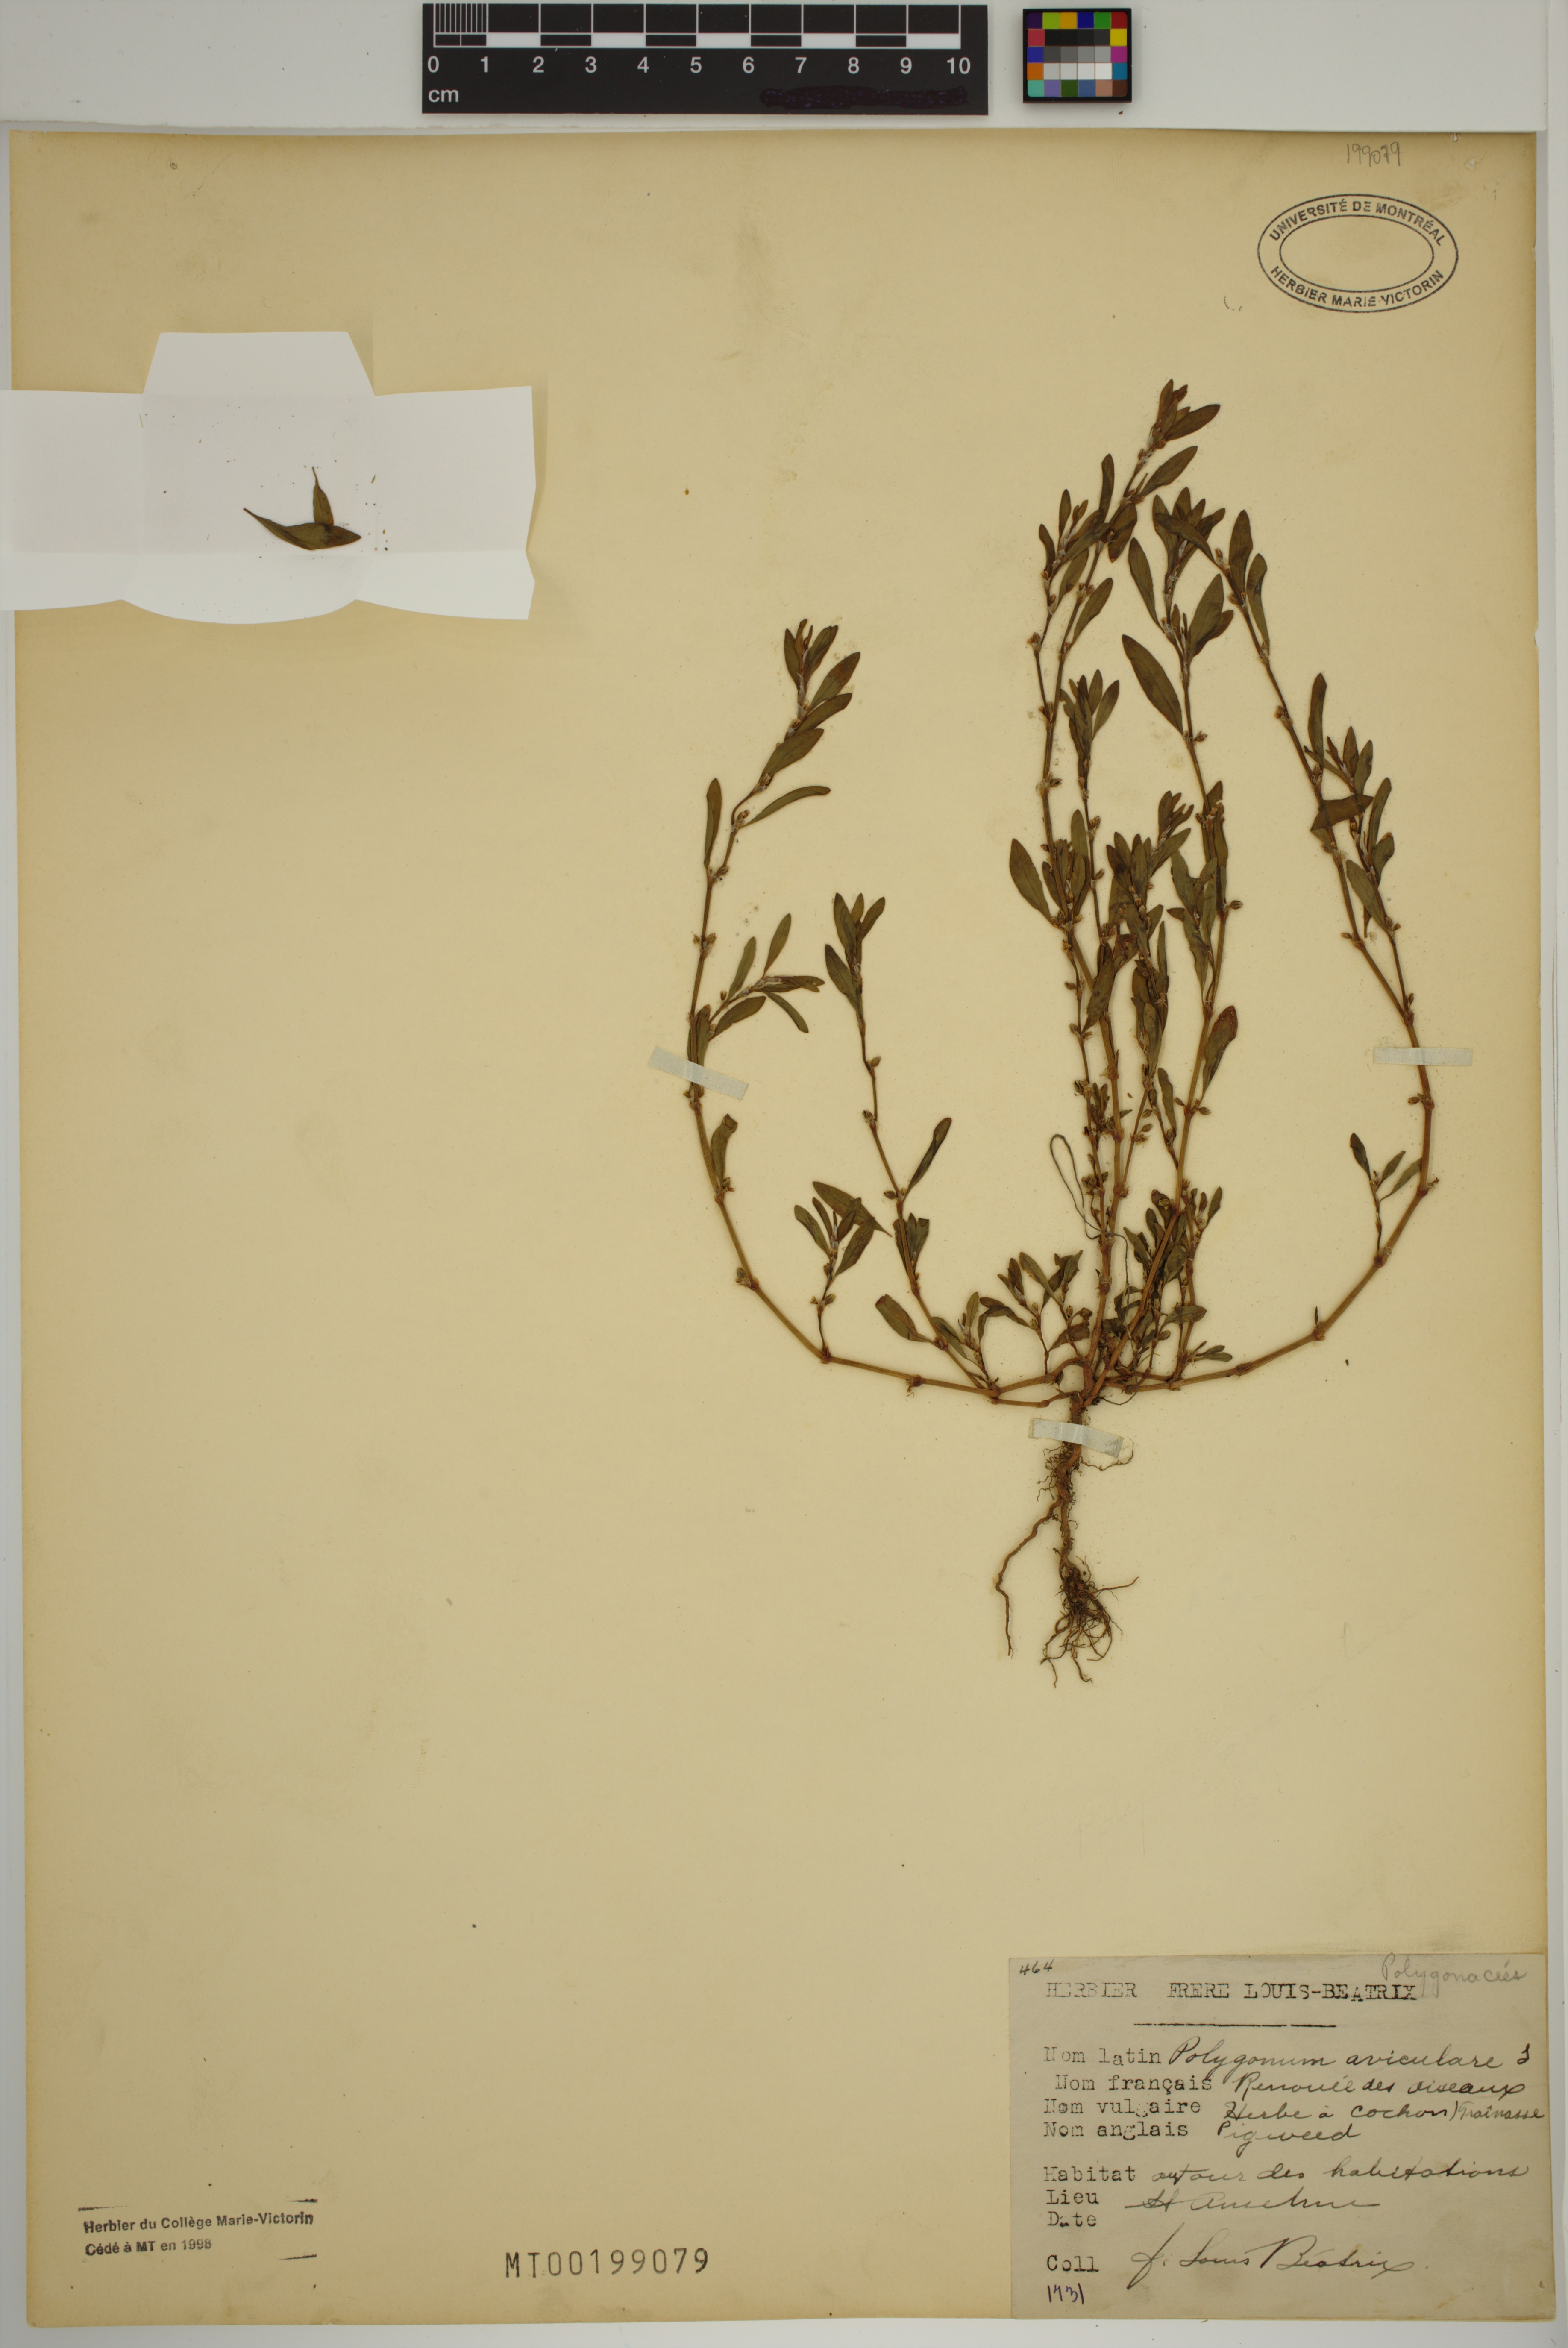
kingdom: Plantae
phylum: Tracheophyta
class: Magnoliopsida
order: Caryophyllales
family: Polygonaceae
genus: Polygonum
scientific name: Polygonum aviculare
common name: Prostrate knotweed
